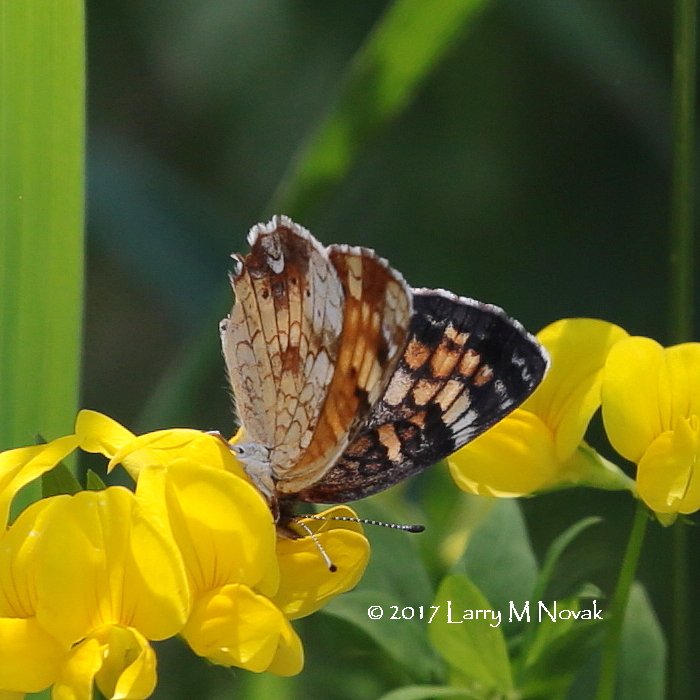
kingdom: Animalia
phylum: Arthropoda
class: Insecta
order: Lepidoptera
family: Nymphalidae
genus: Phyciodes
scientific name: Phyciodes tharos
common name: Pearl Crescent
